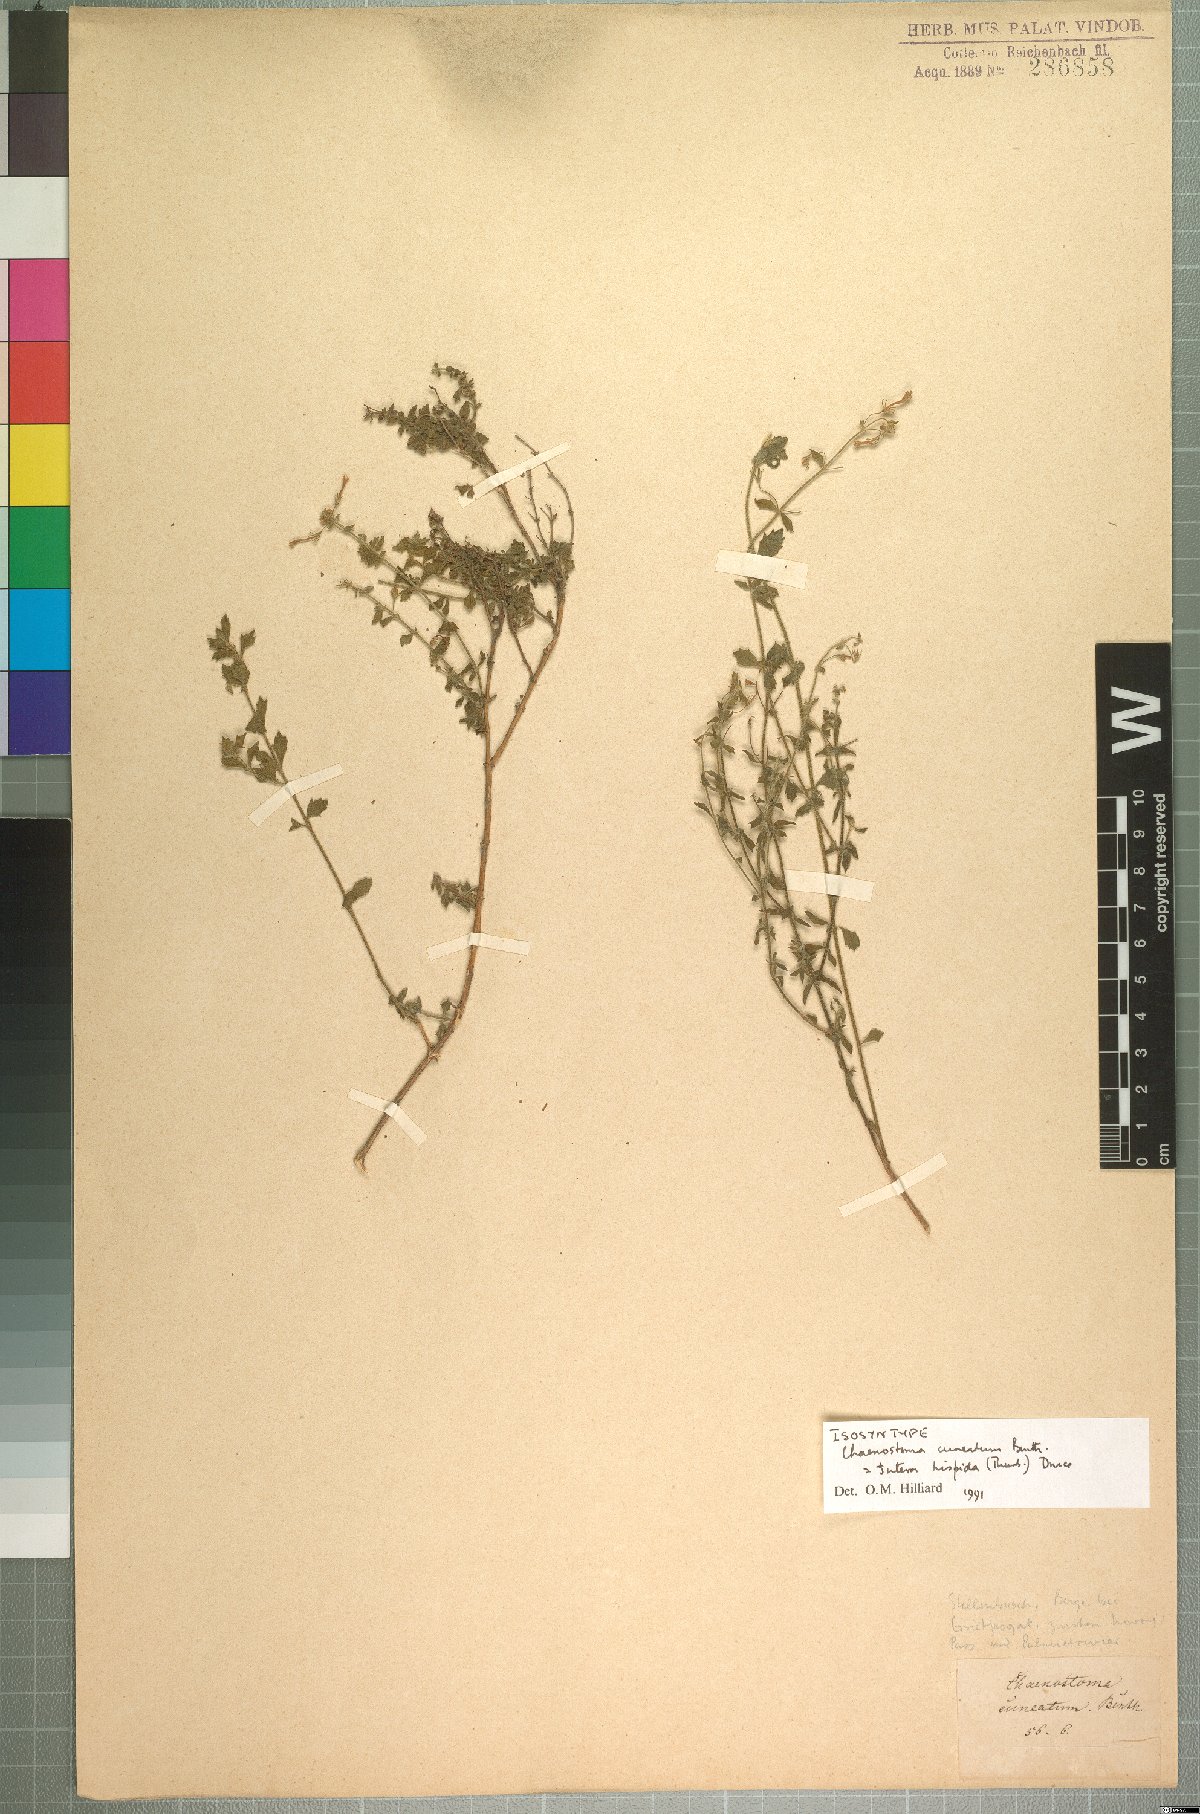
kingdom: Plantae
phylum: Tracheophyta
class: Magnoliopsida
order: Lamiales
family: Scrophulariaceae
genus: Chaenostoma
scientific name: Chaenostoma hispidum
